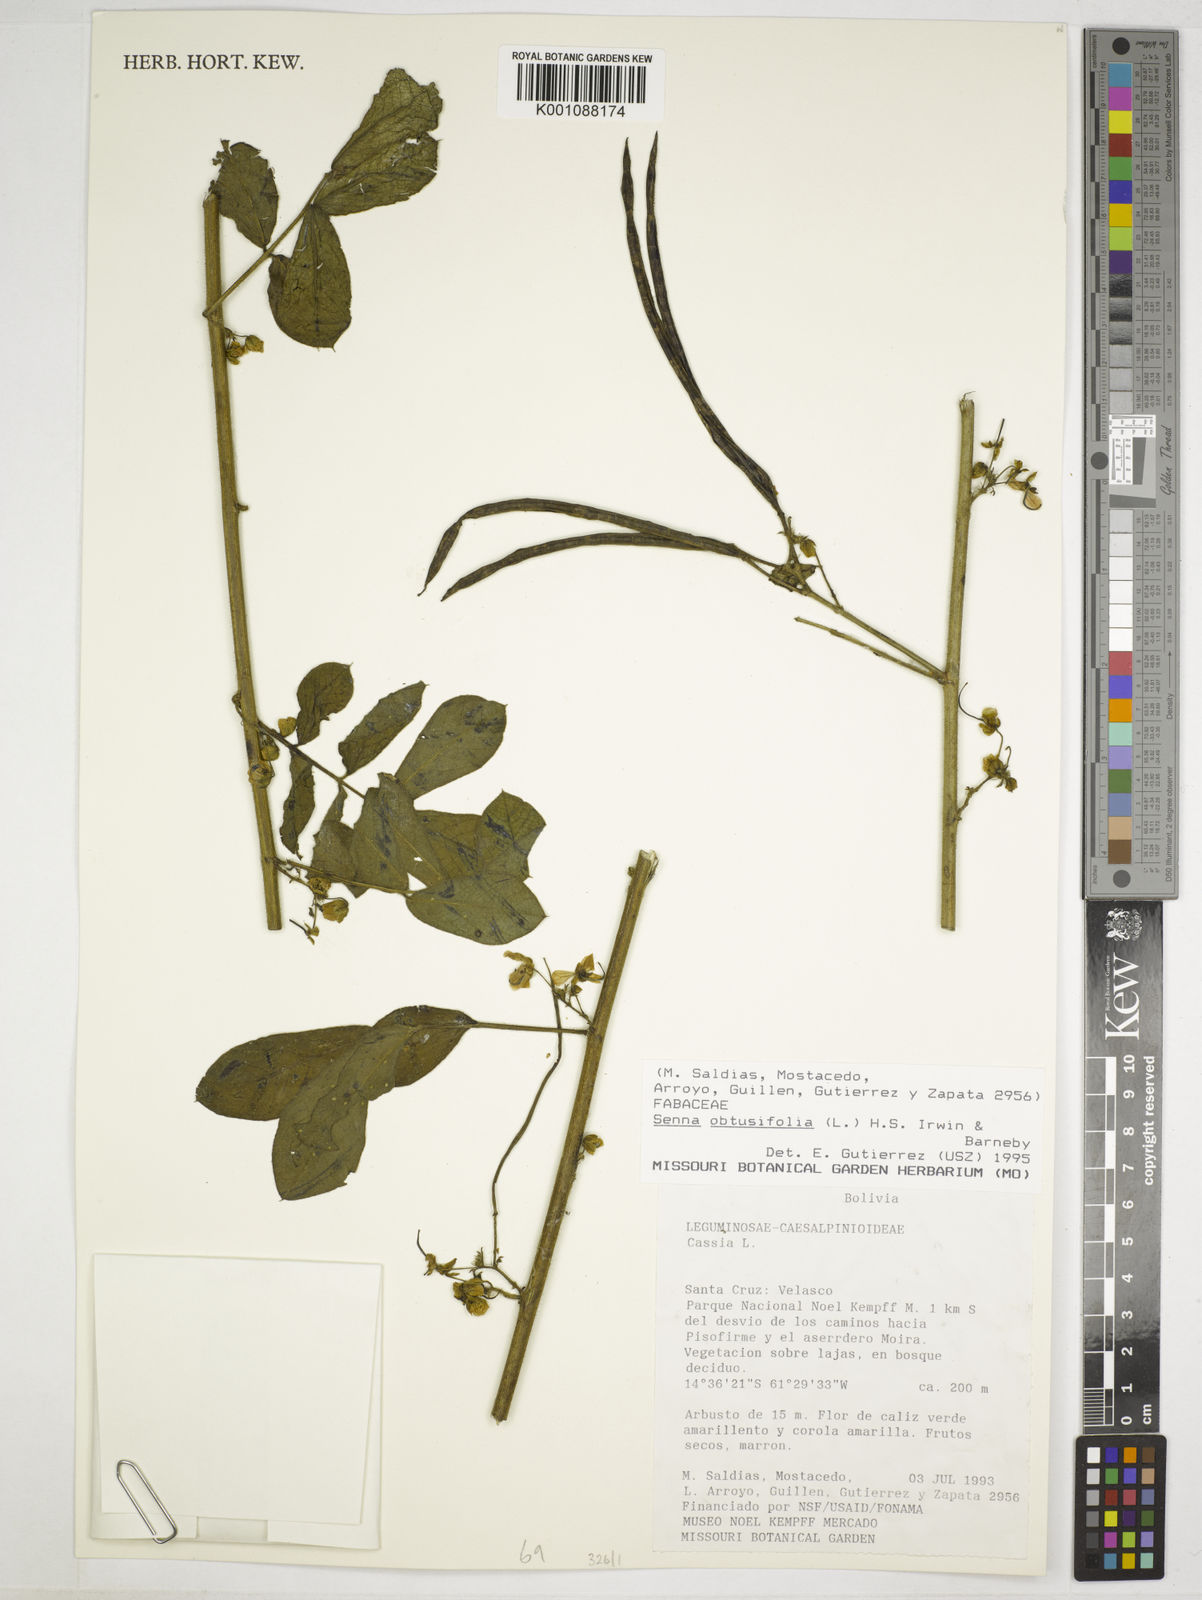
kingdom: Plantae
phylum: Tracheophyta
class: Magnoliopsida
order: Fabales
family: Fabaceae
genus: Senna
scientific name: Senna obtusifolia
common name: Java-bean
